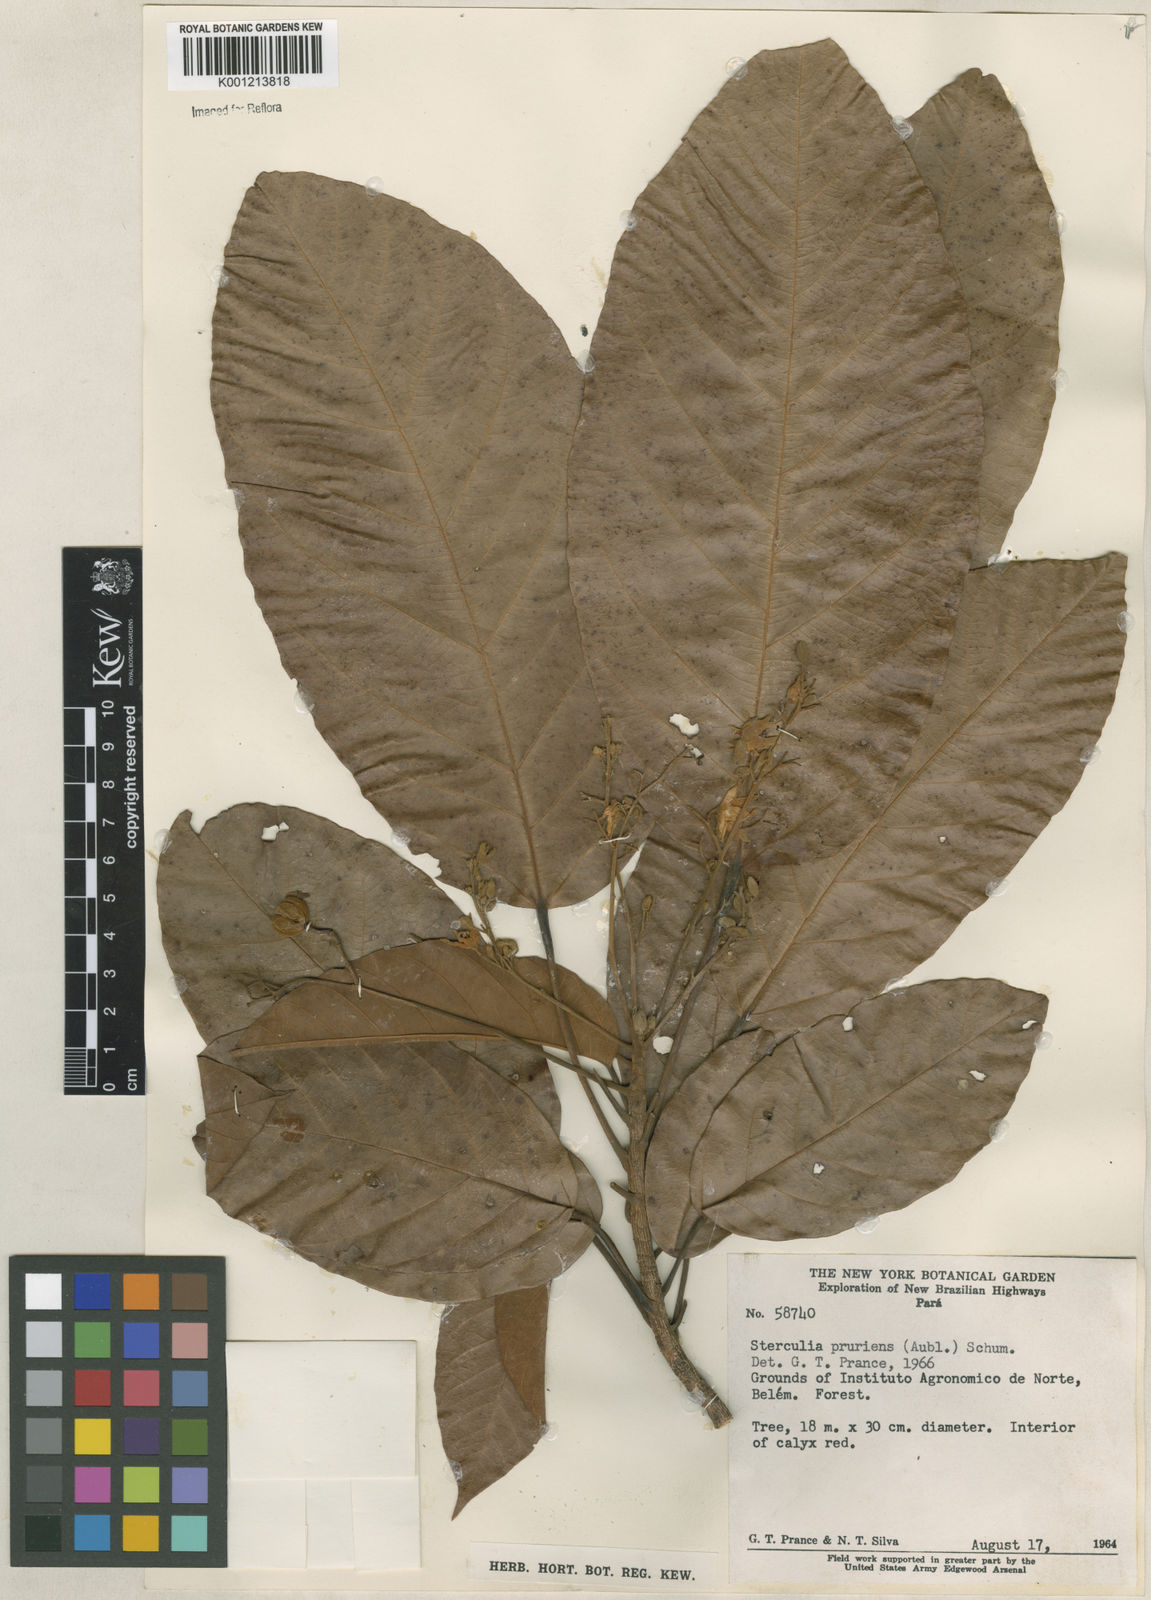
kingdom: Plantae
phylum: Tracheophyta
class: Magnoliopsida
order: Malvales
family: Malvaceae
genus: Sterculia
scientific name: Sterculia pruriens
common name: Grand mahot
